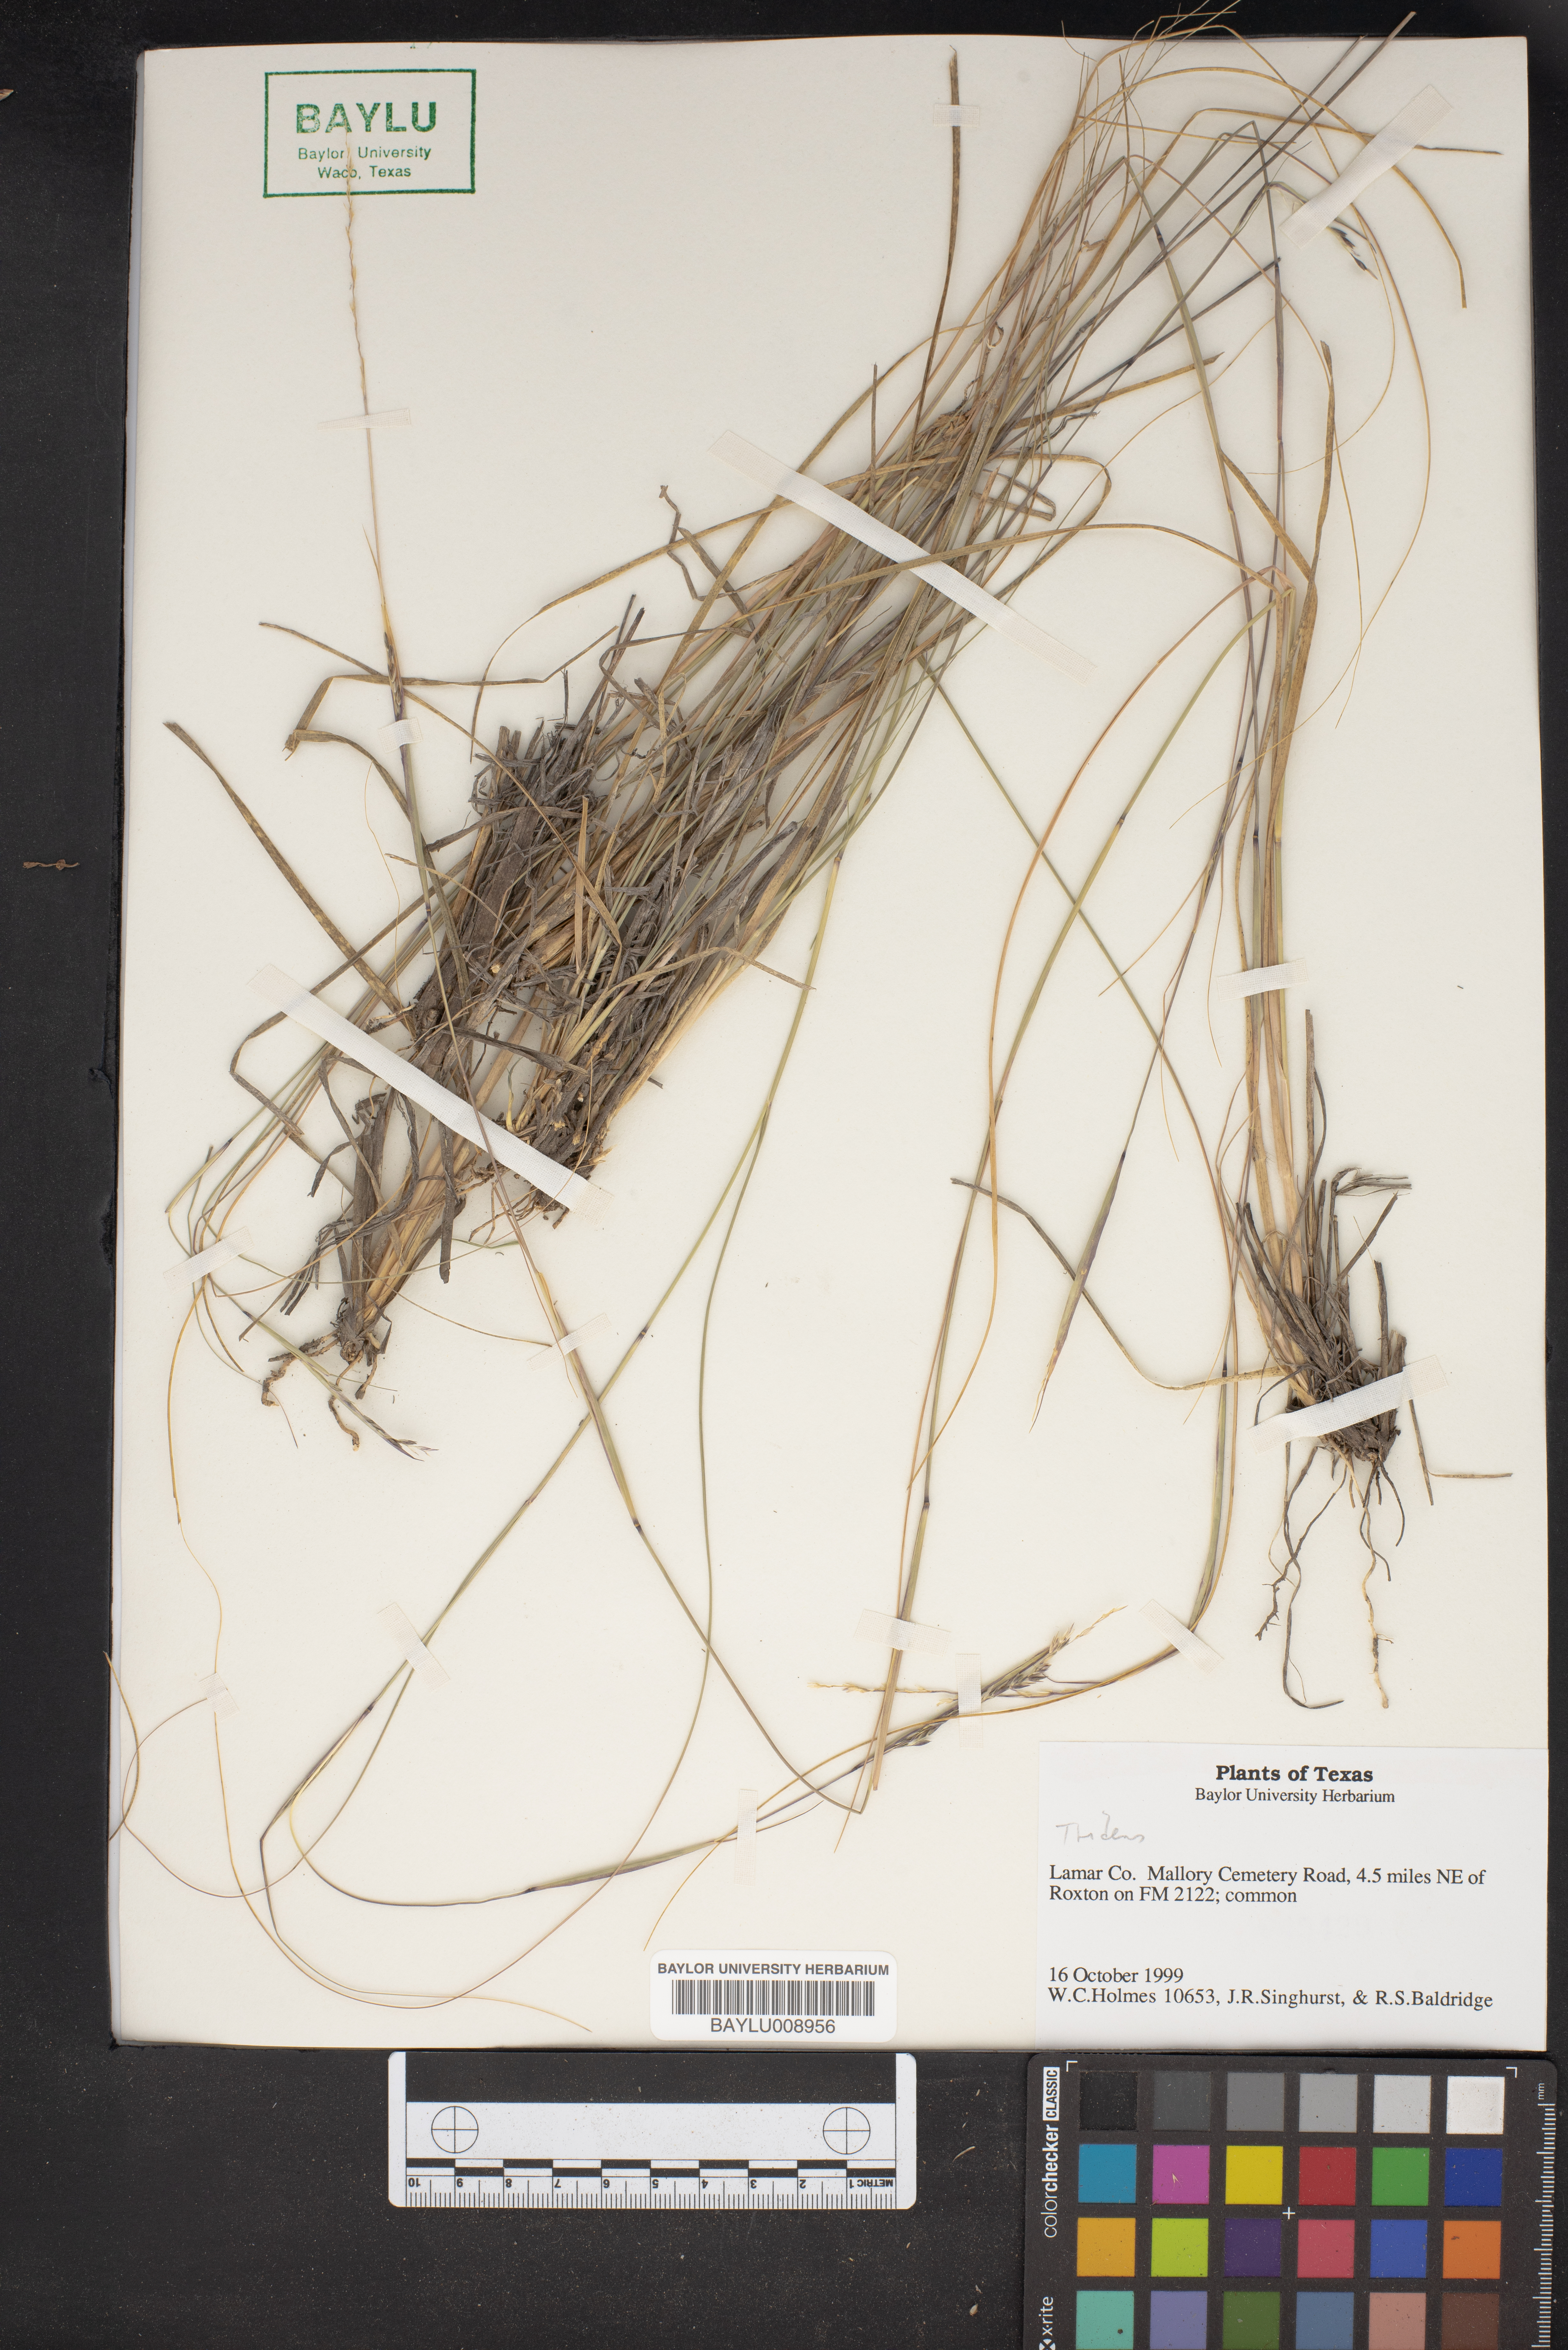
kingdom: Plantae
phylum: Tracheophyta
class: Liliopsida
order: Poales
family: Poaceae
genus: Tridens
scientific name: Tridens
